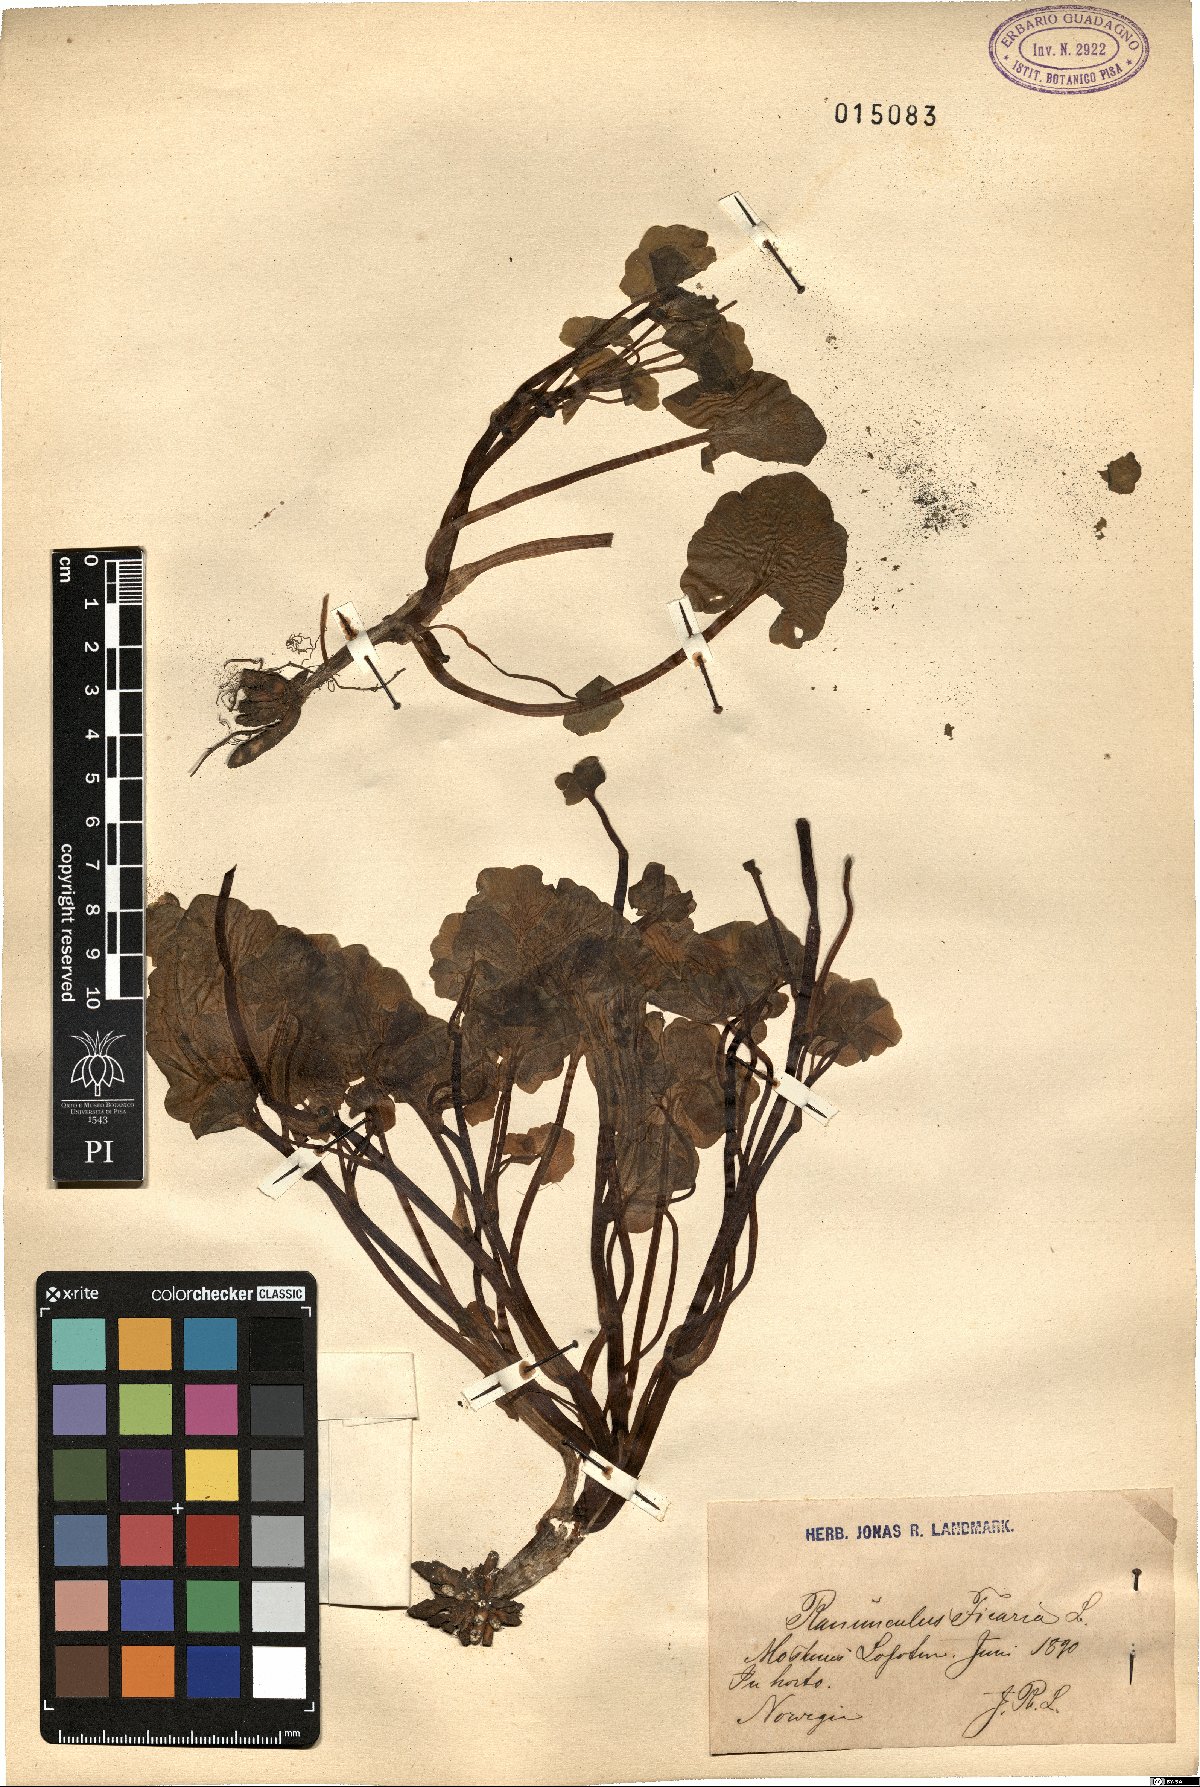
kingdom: Plantae
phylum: Tracheophyta
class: Magnoliopsida
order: Ranunculales
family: Ranunculaceae
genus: Ficaria
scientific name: Ficaria verna
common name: Lesser celandine
